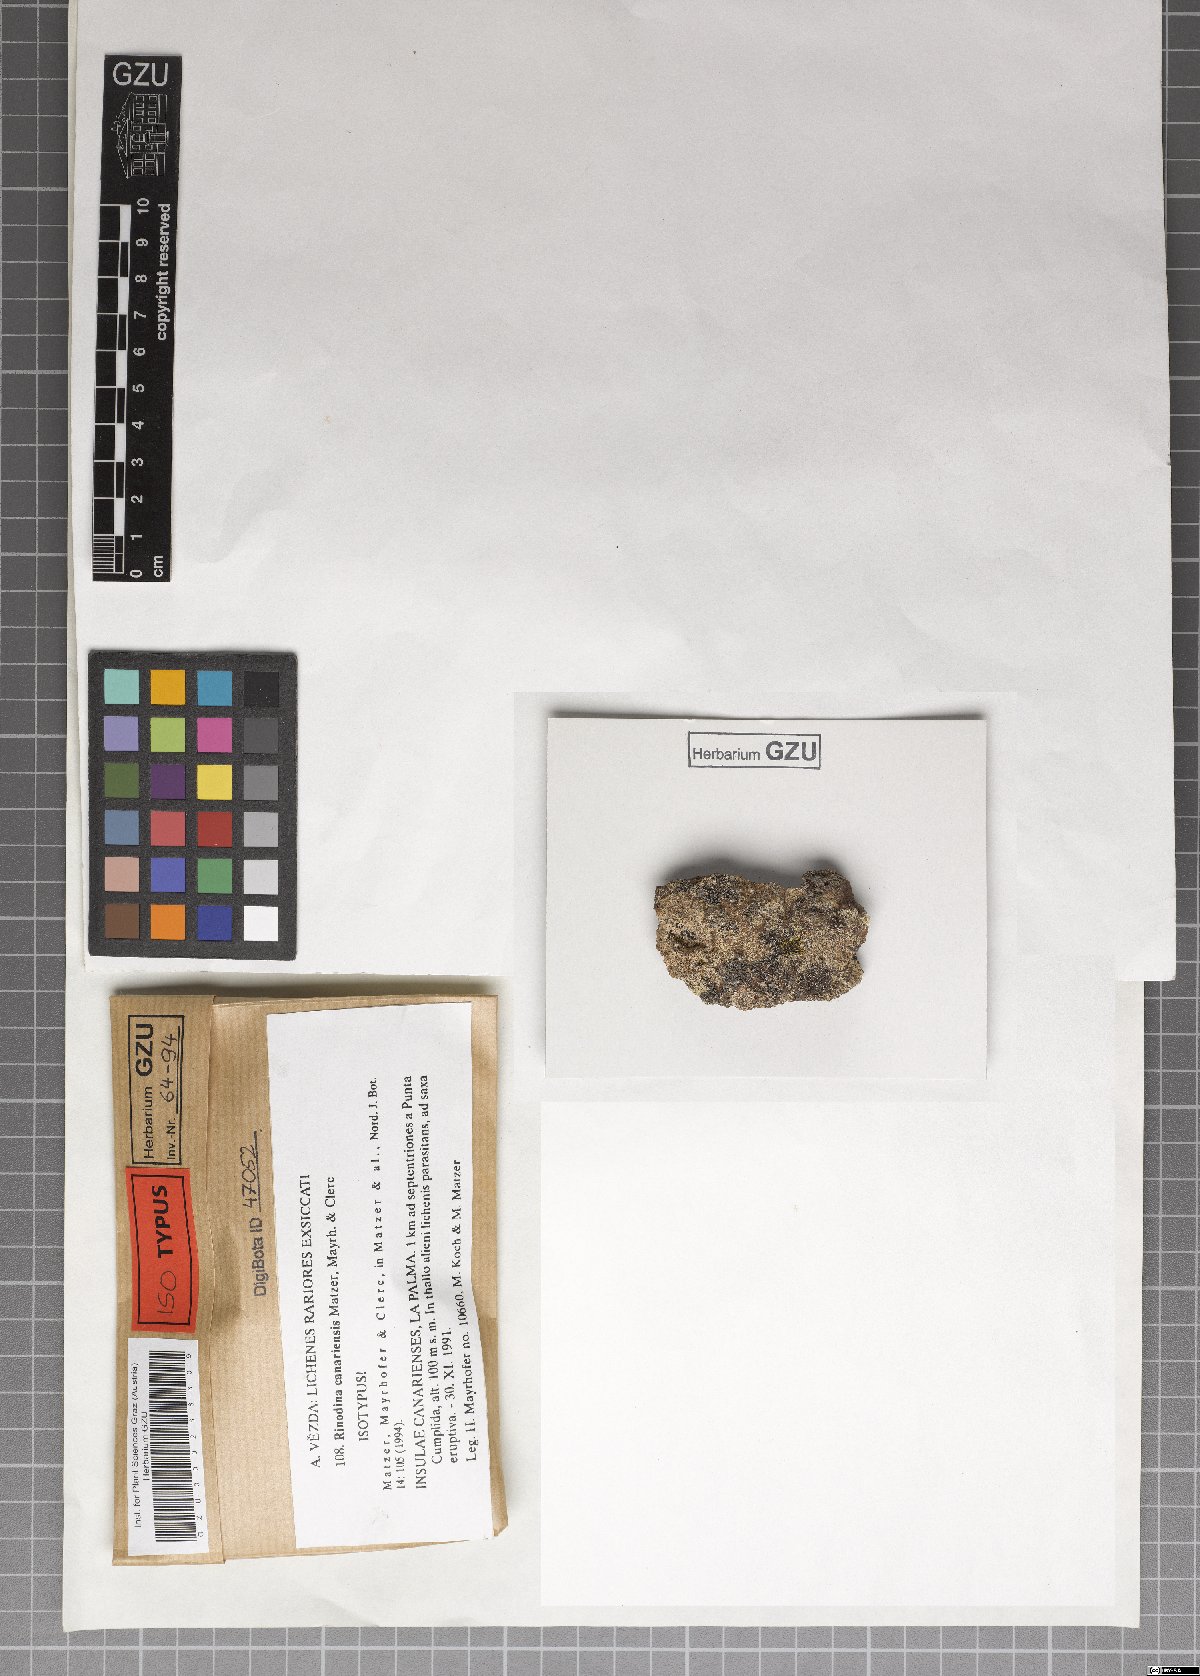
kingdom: Fungi
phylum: Ascomycota
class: Lecanoromycetes
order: Caliciales
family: Physciaceae
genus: Rinodina
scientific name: Rinodina canariensis
